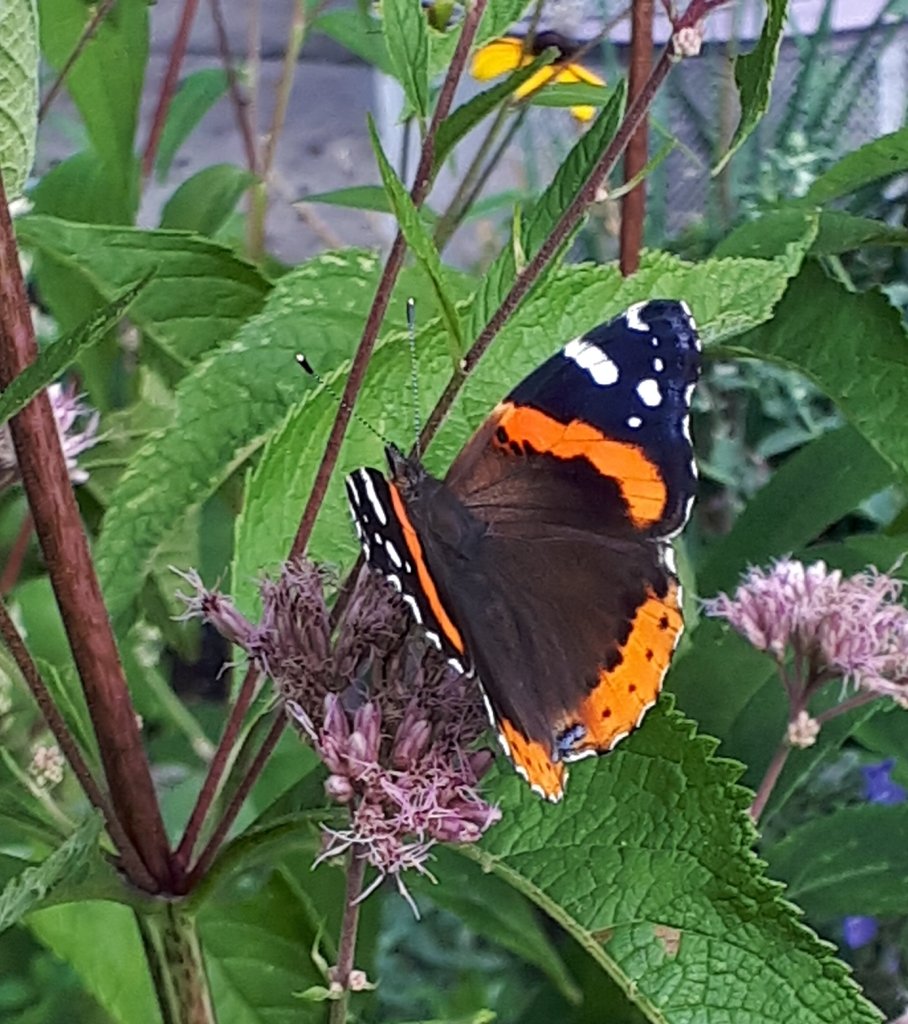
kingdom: Animalia
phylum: Arthropoda
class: Insecta
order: Lepidoptera
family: Nymphalidae
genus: Vanessa
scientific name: Vanessa atalanta
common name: Red Admiral
